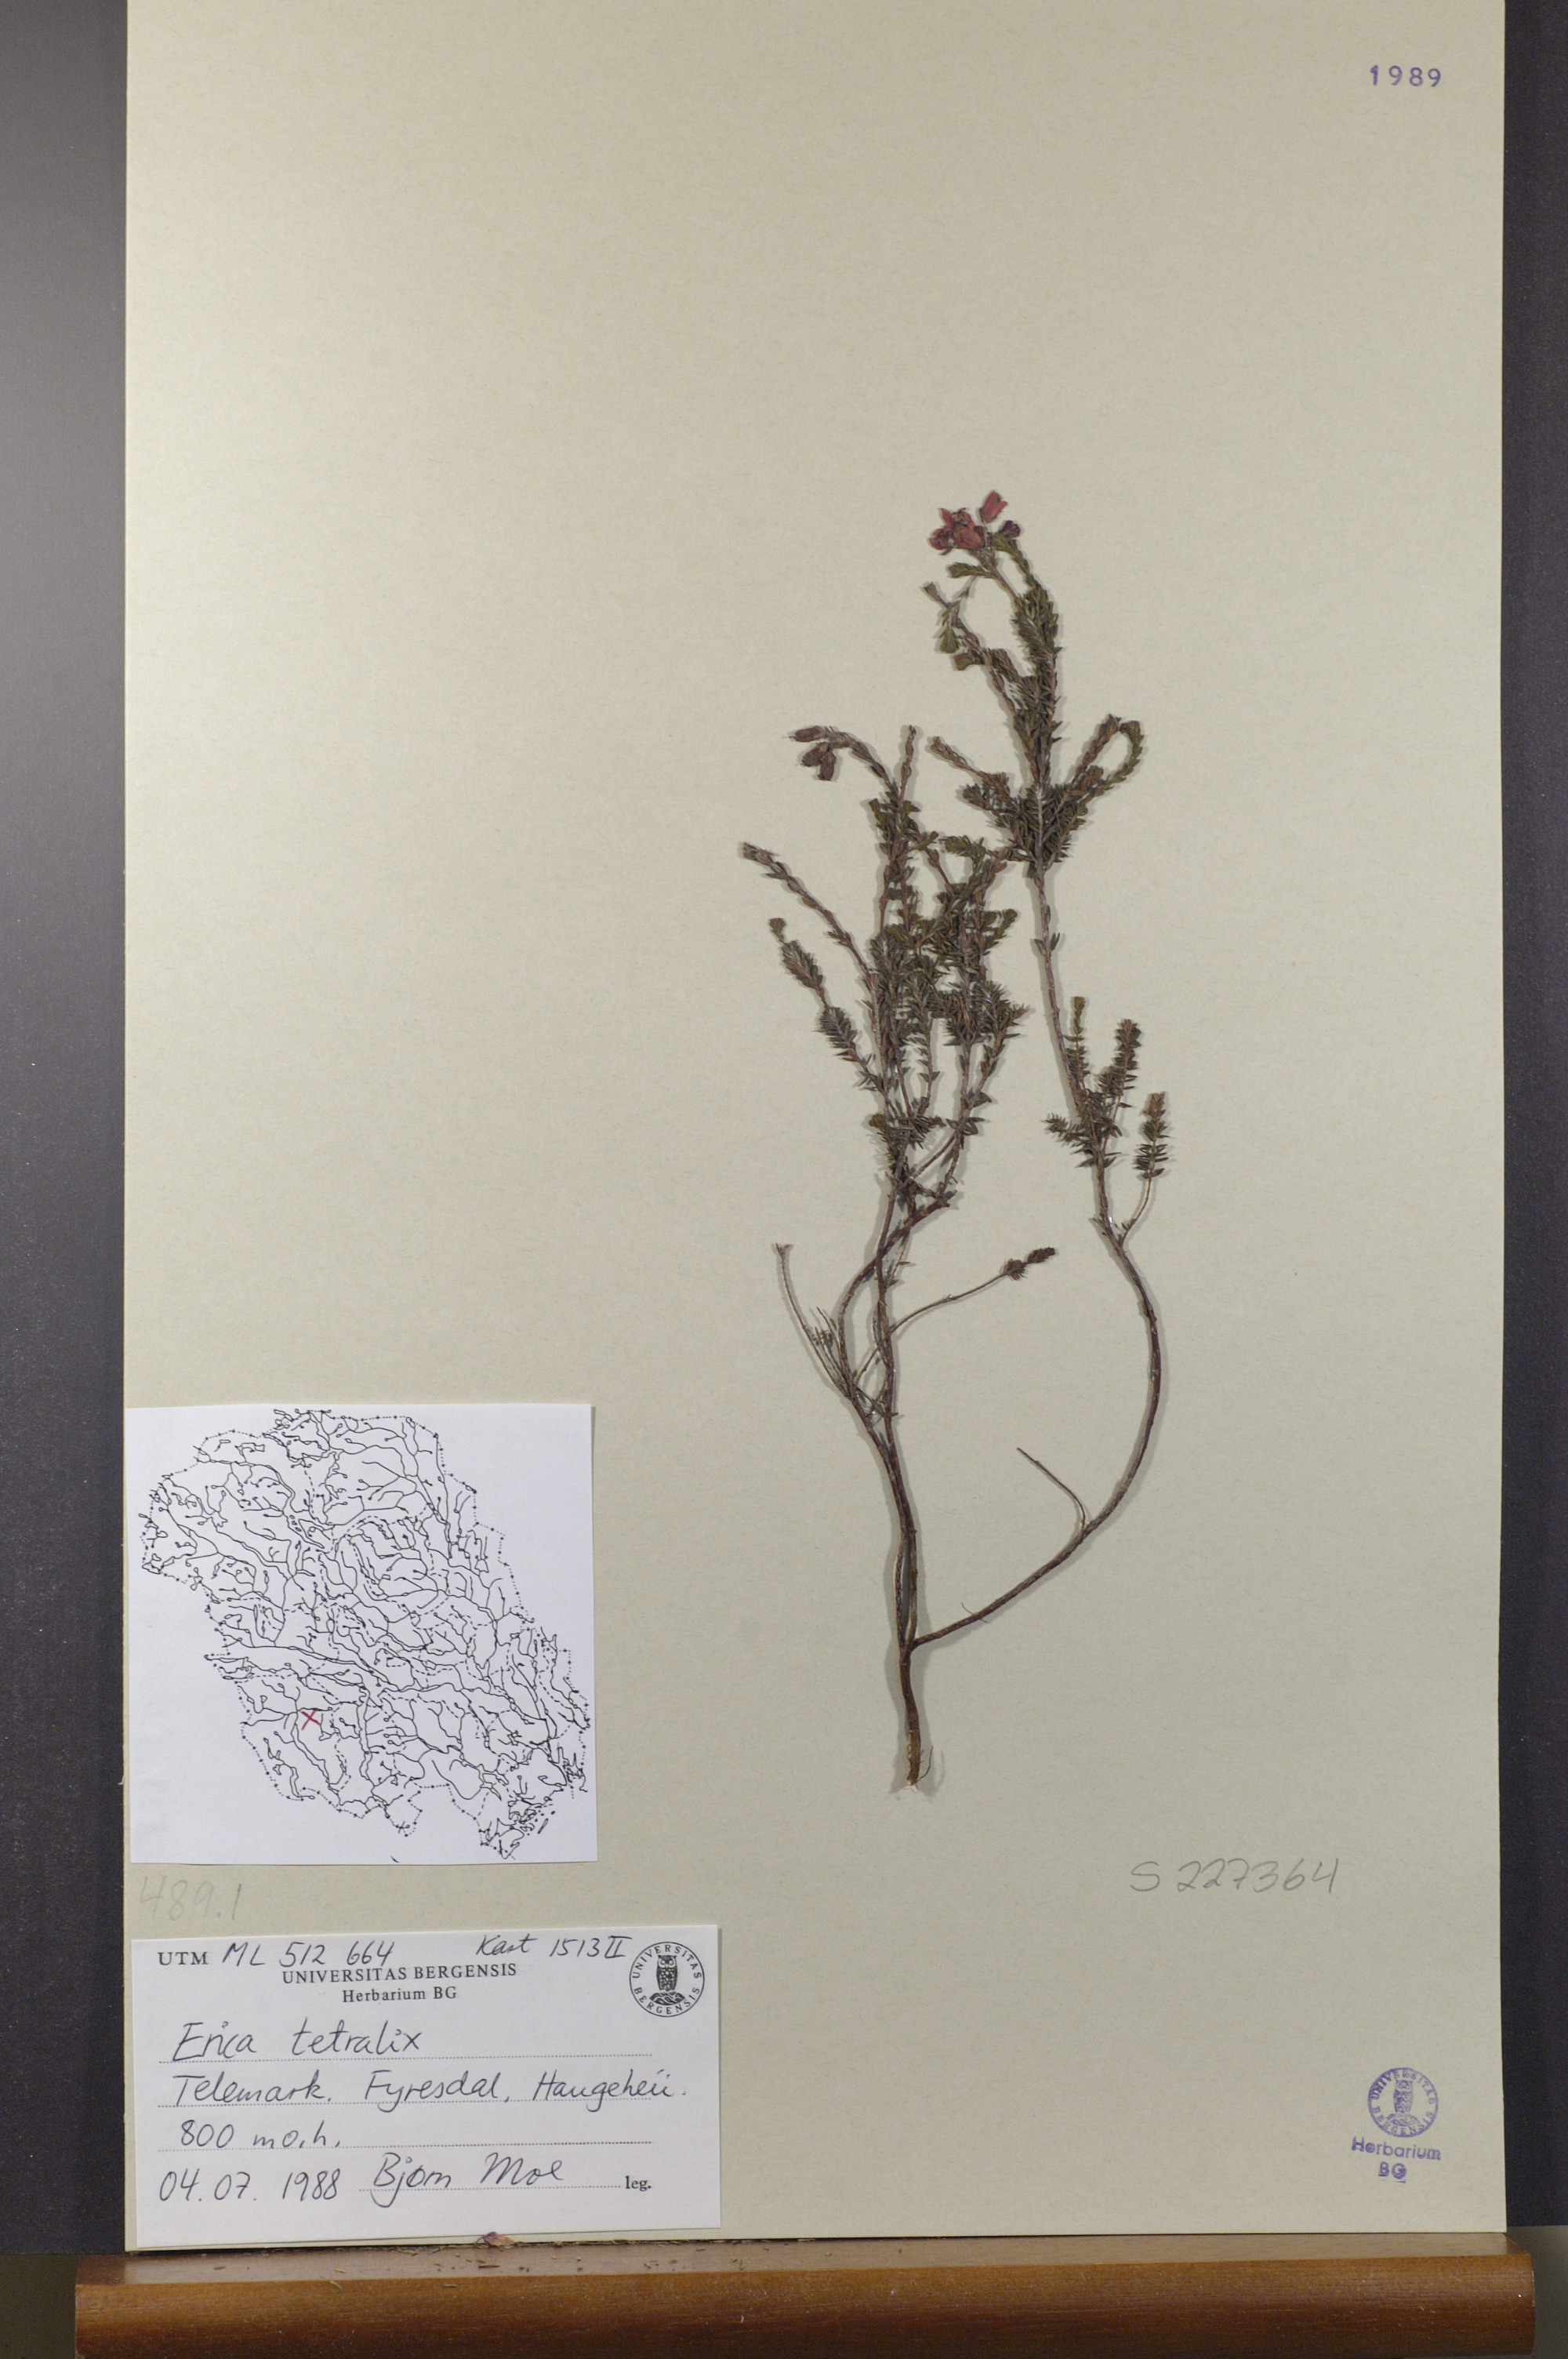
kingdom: Plantae
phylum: Tracheophyta
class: Magnoliopsida
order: Ericales
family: Ericaceae
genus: Erica
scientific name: Erica tetralix
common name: Cross-leaved heath
